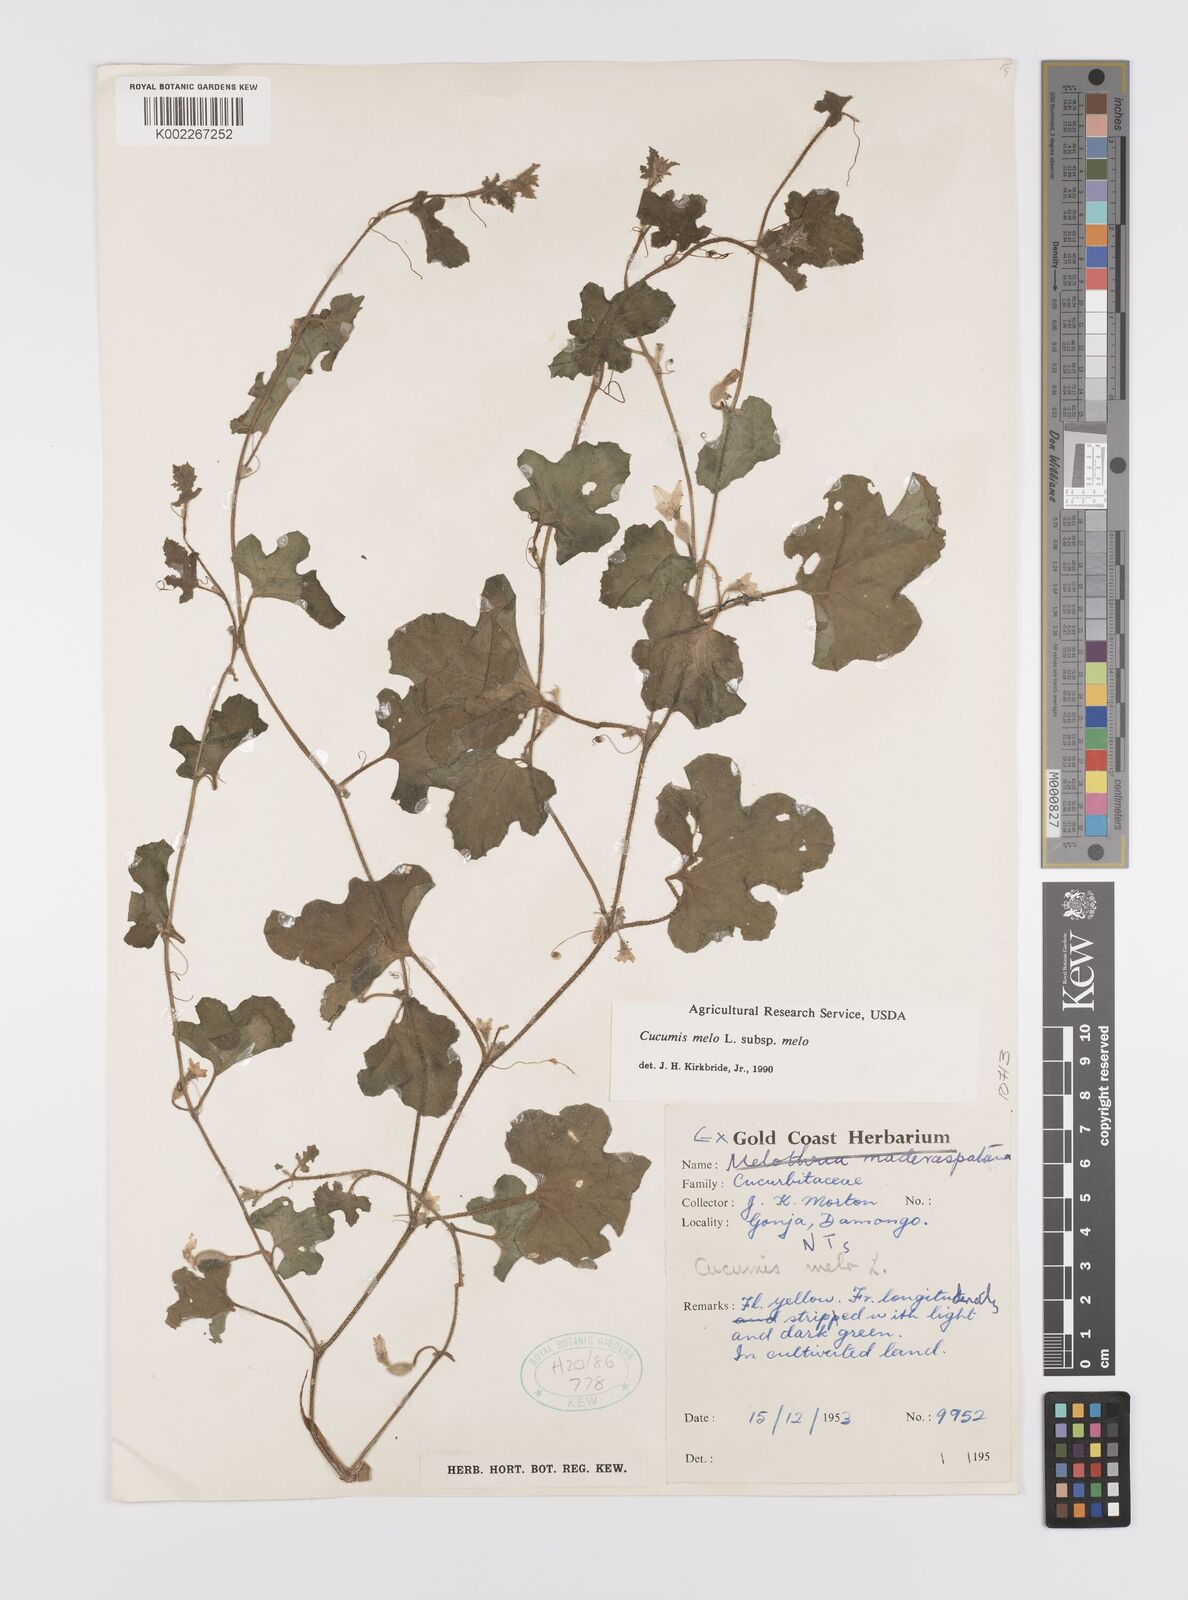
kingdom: Plantae
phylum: Tracheophyta
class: Magnoliopsida
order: Cucurbitales
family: Cucurbitaceae
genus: Cucumis
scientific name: Cucumis melo
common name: Melon
